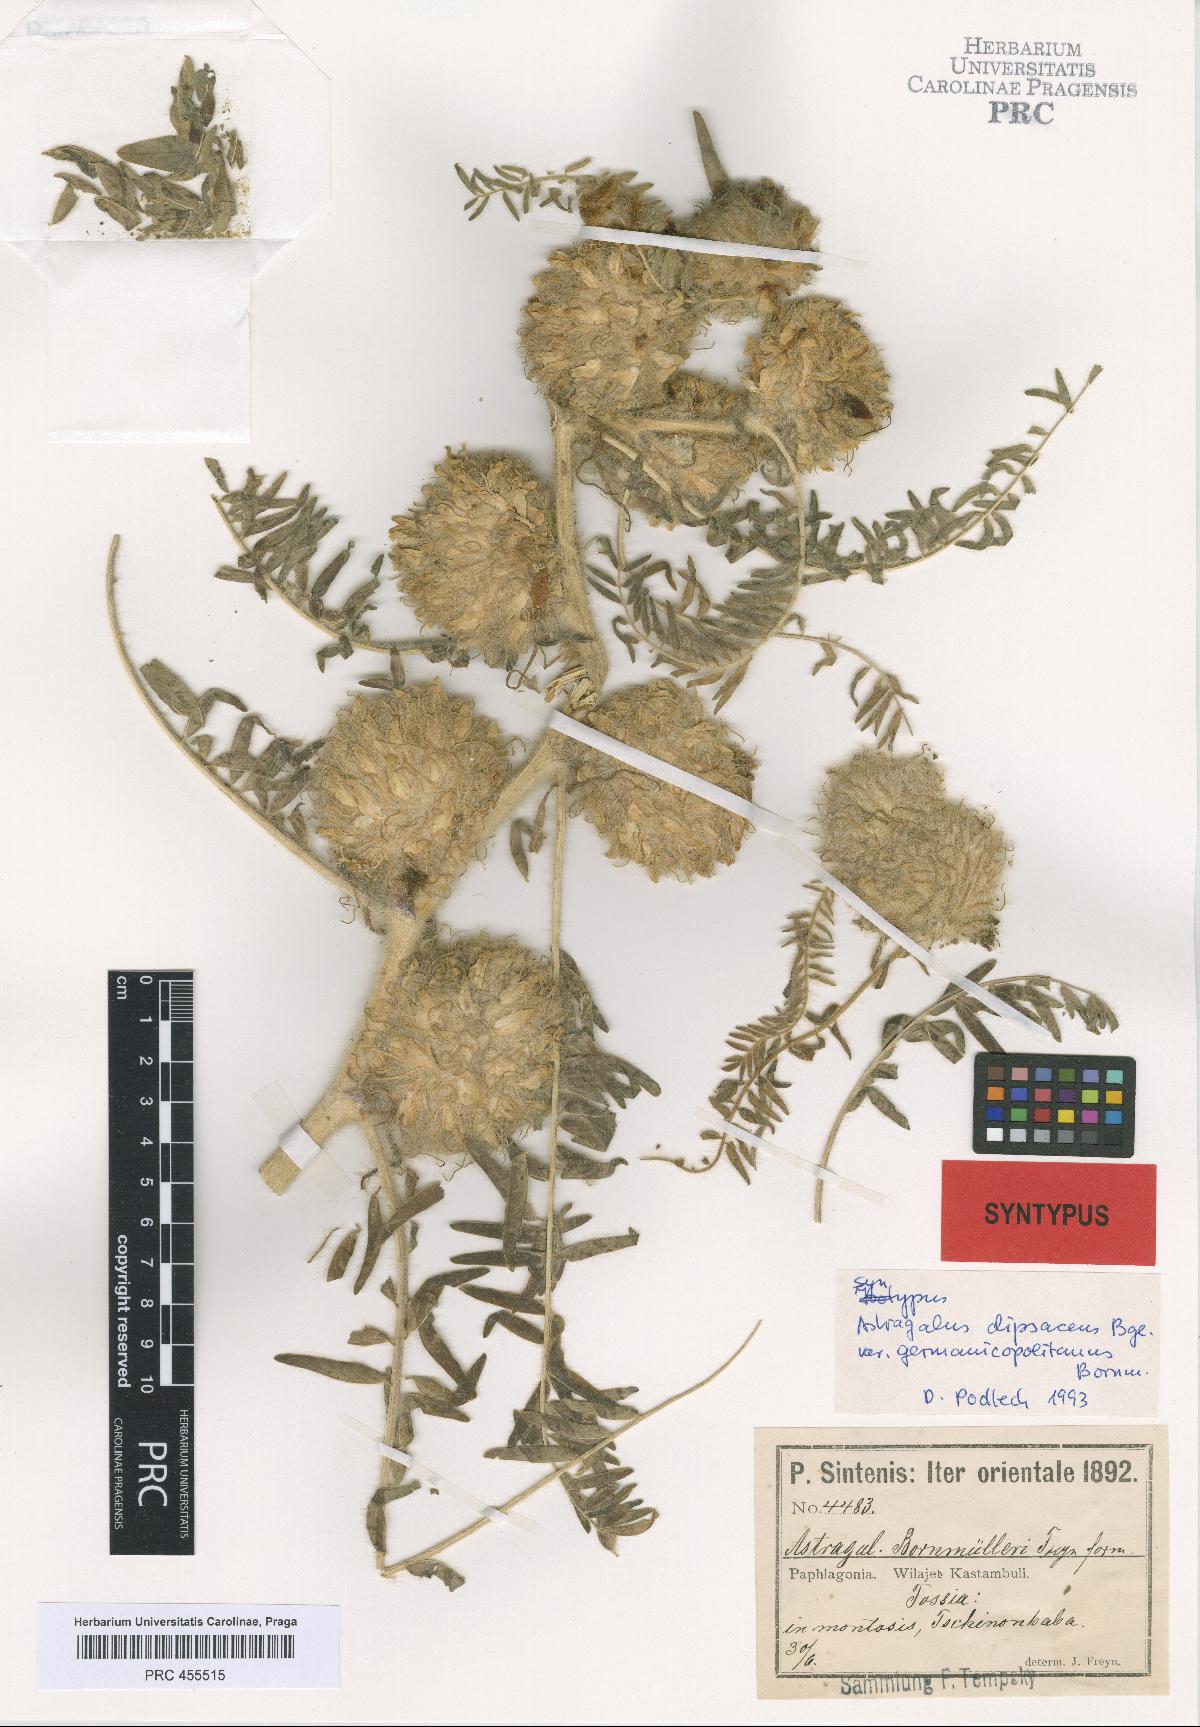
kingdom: Plantae
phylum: Tracheophyta
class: Magnoliopsida
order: Fabales
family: Fabaceae
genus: Astragalus
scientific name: Astragalus germanicopolitanus
